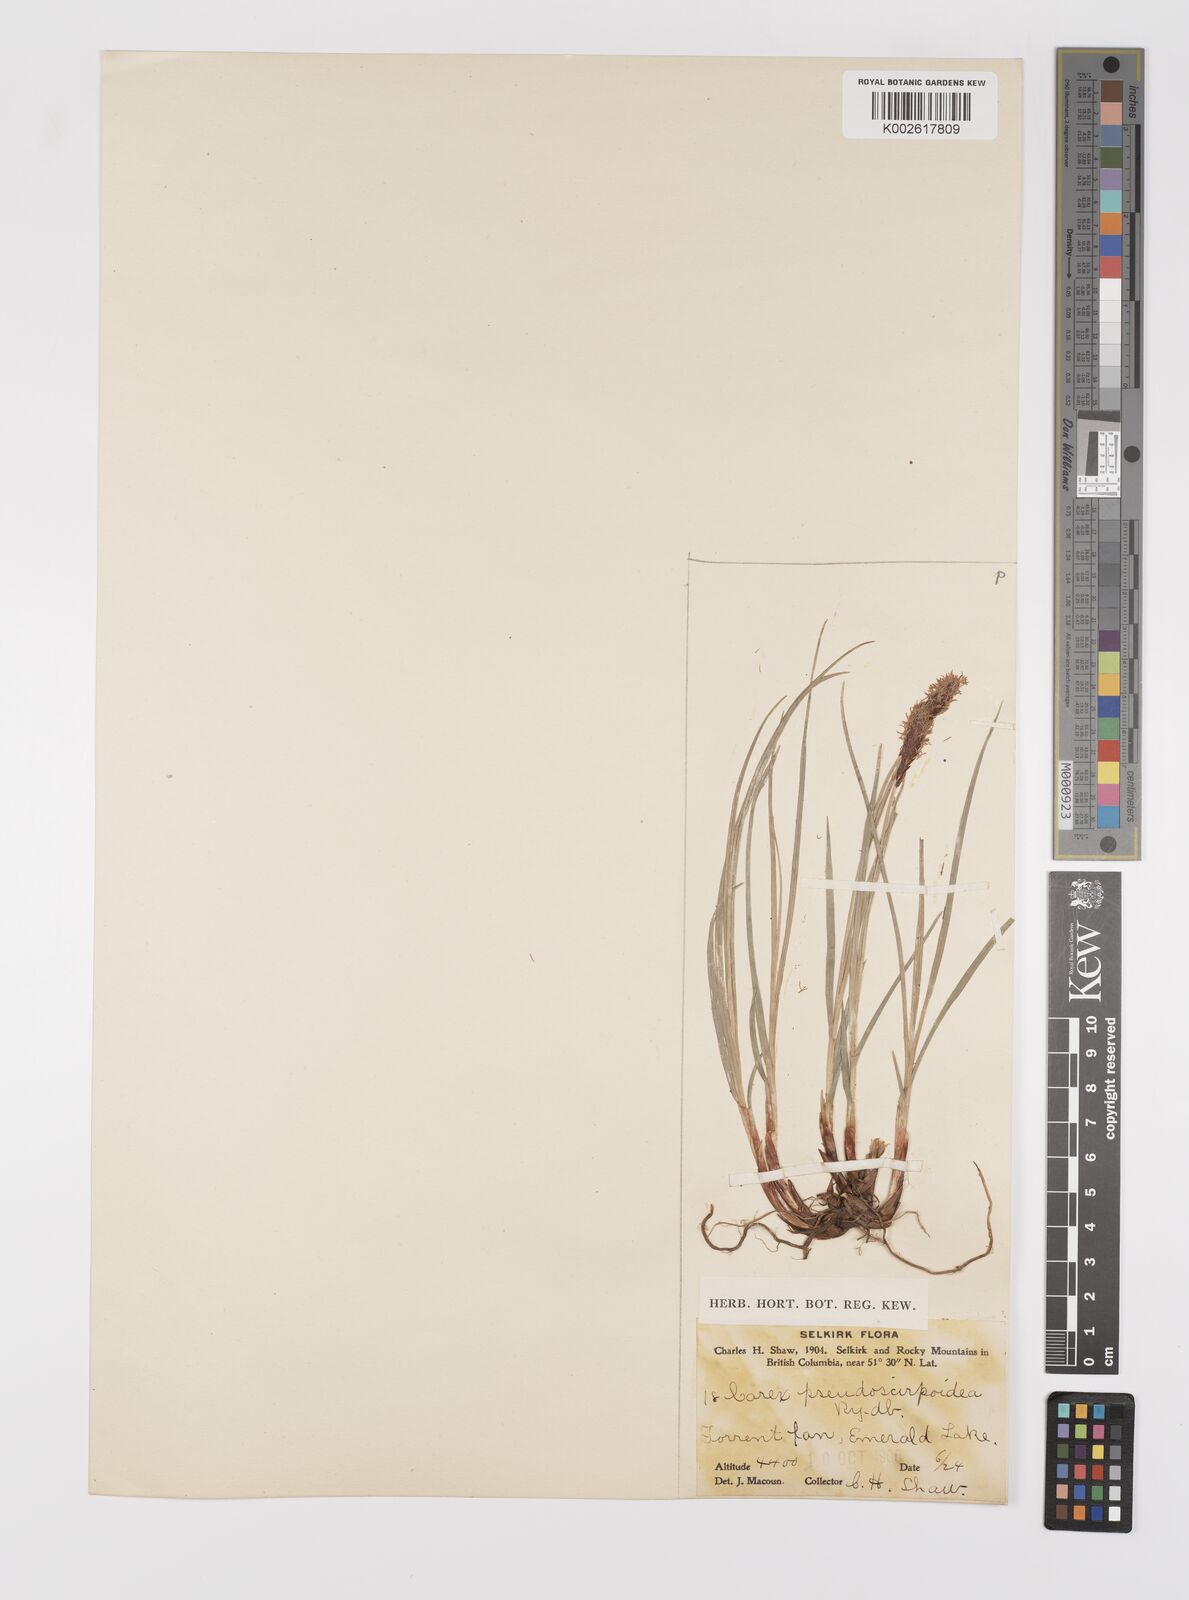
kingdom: Plantae
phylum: Tracheophyta
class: Liliopsida
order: Poales
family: Cyperaceae
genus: Carex
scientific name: Carex scirpoidea
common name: Canada single-spike sedge
